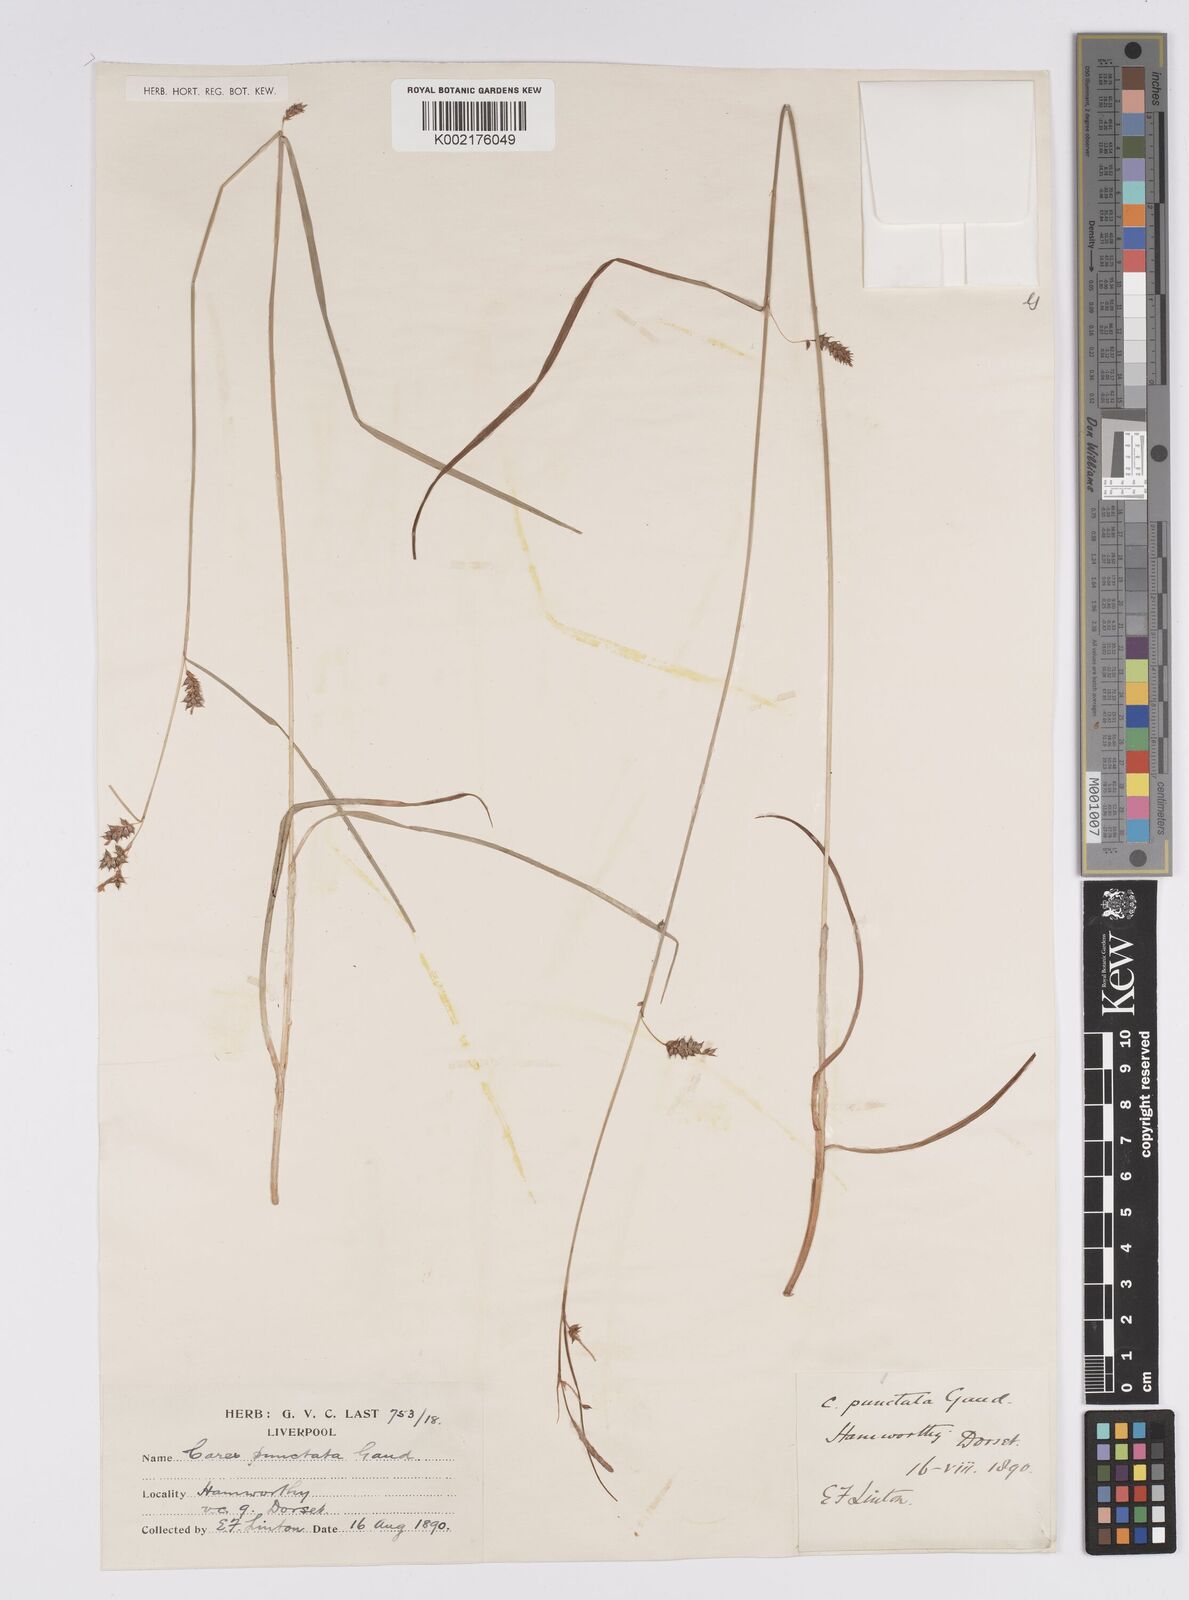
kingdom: Plantae
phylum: Tracheophyta
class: Liliopsida
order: Poales
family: Cyperaceae
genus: Carex
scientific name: Carex punctata
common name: Dotted sedge
